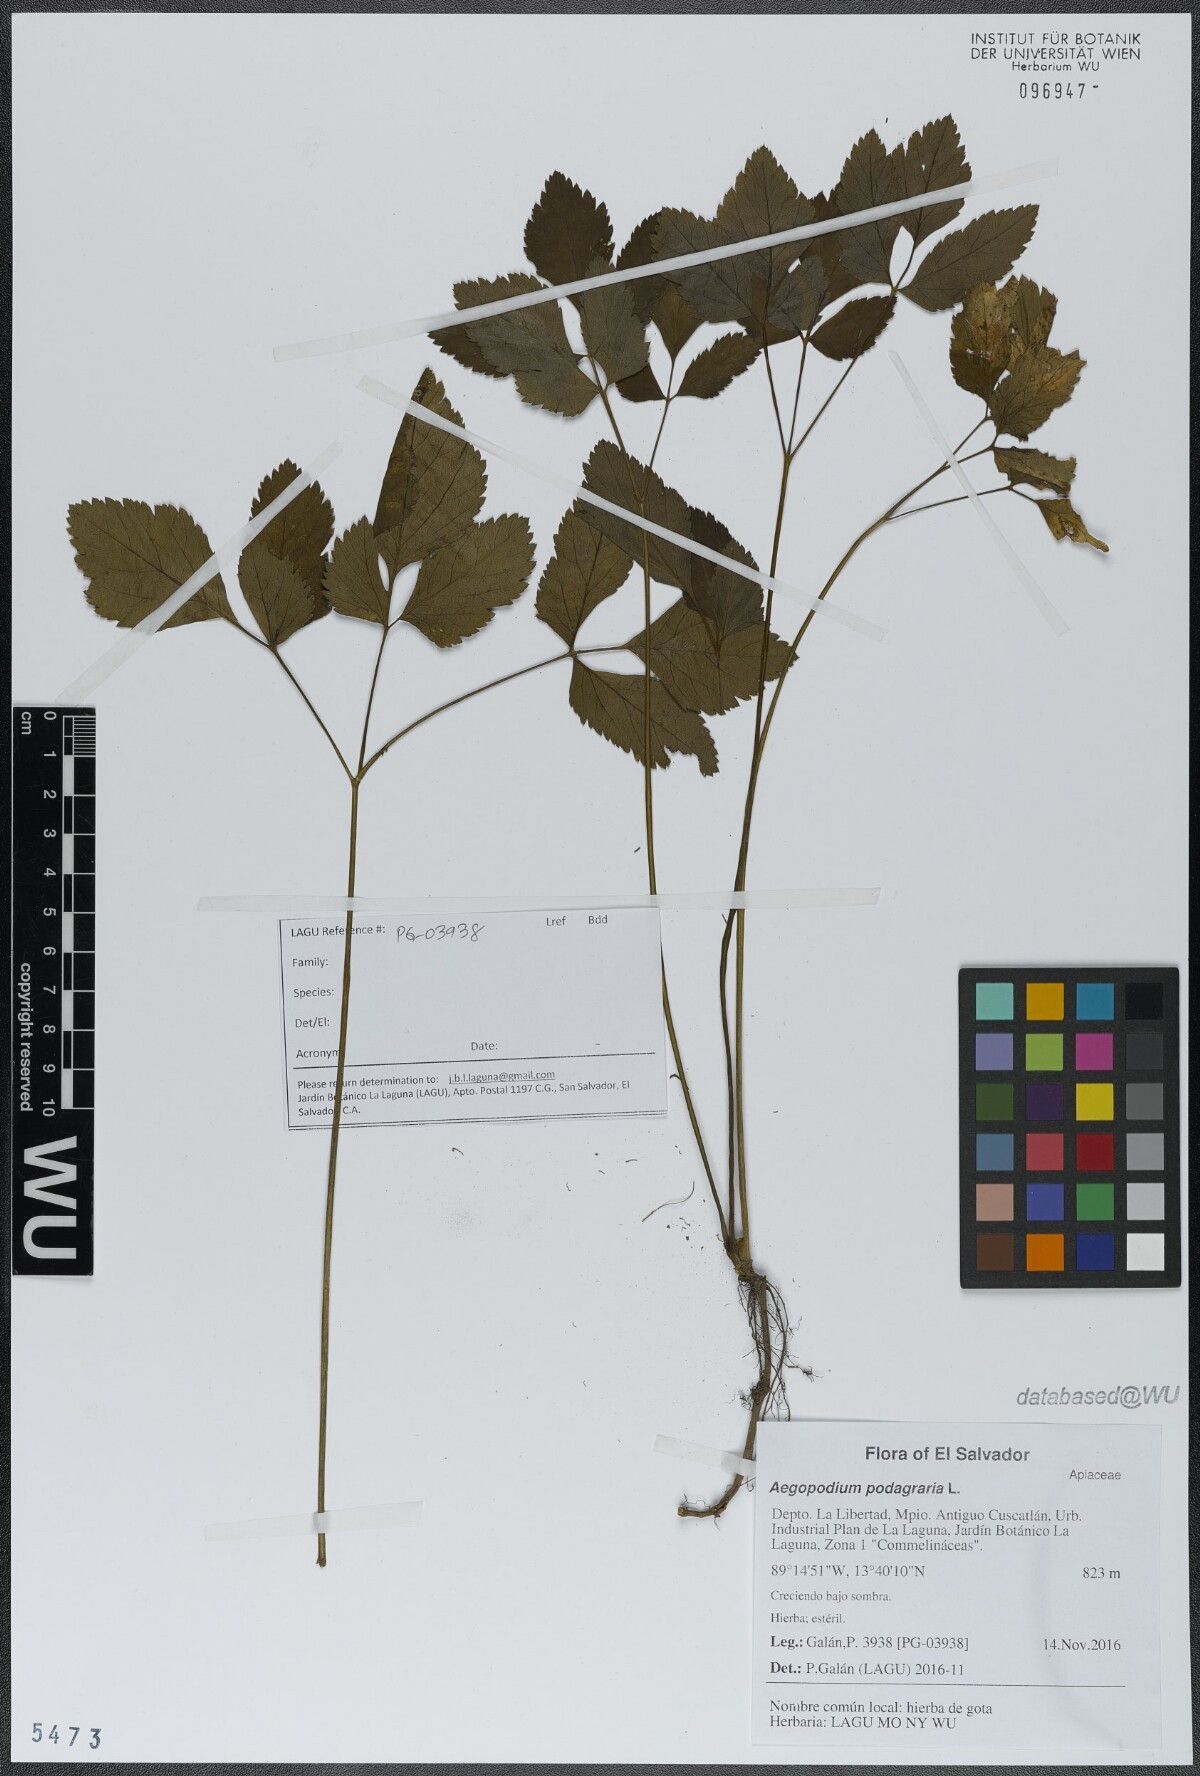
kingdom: Plantae
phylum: Tracheophyta
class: Magnoliopsida
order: Apiales
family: Apiaceae
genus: Aegopodium
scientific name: Aegopodium podagraria
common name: Ground-elder
